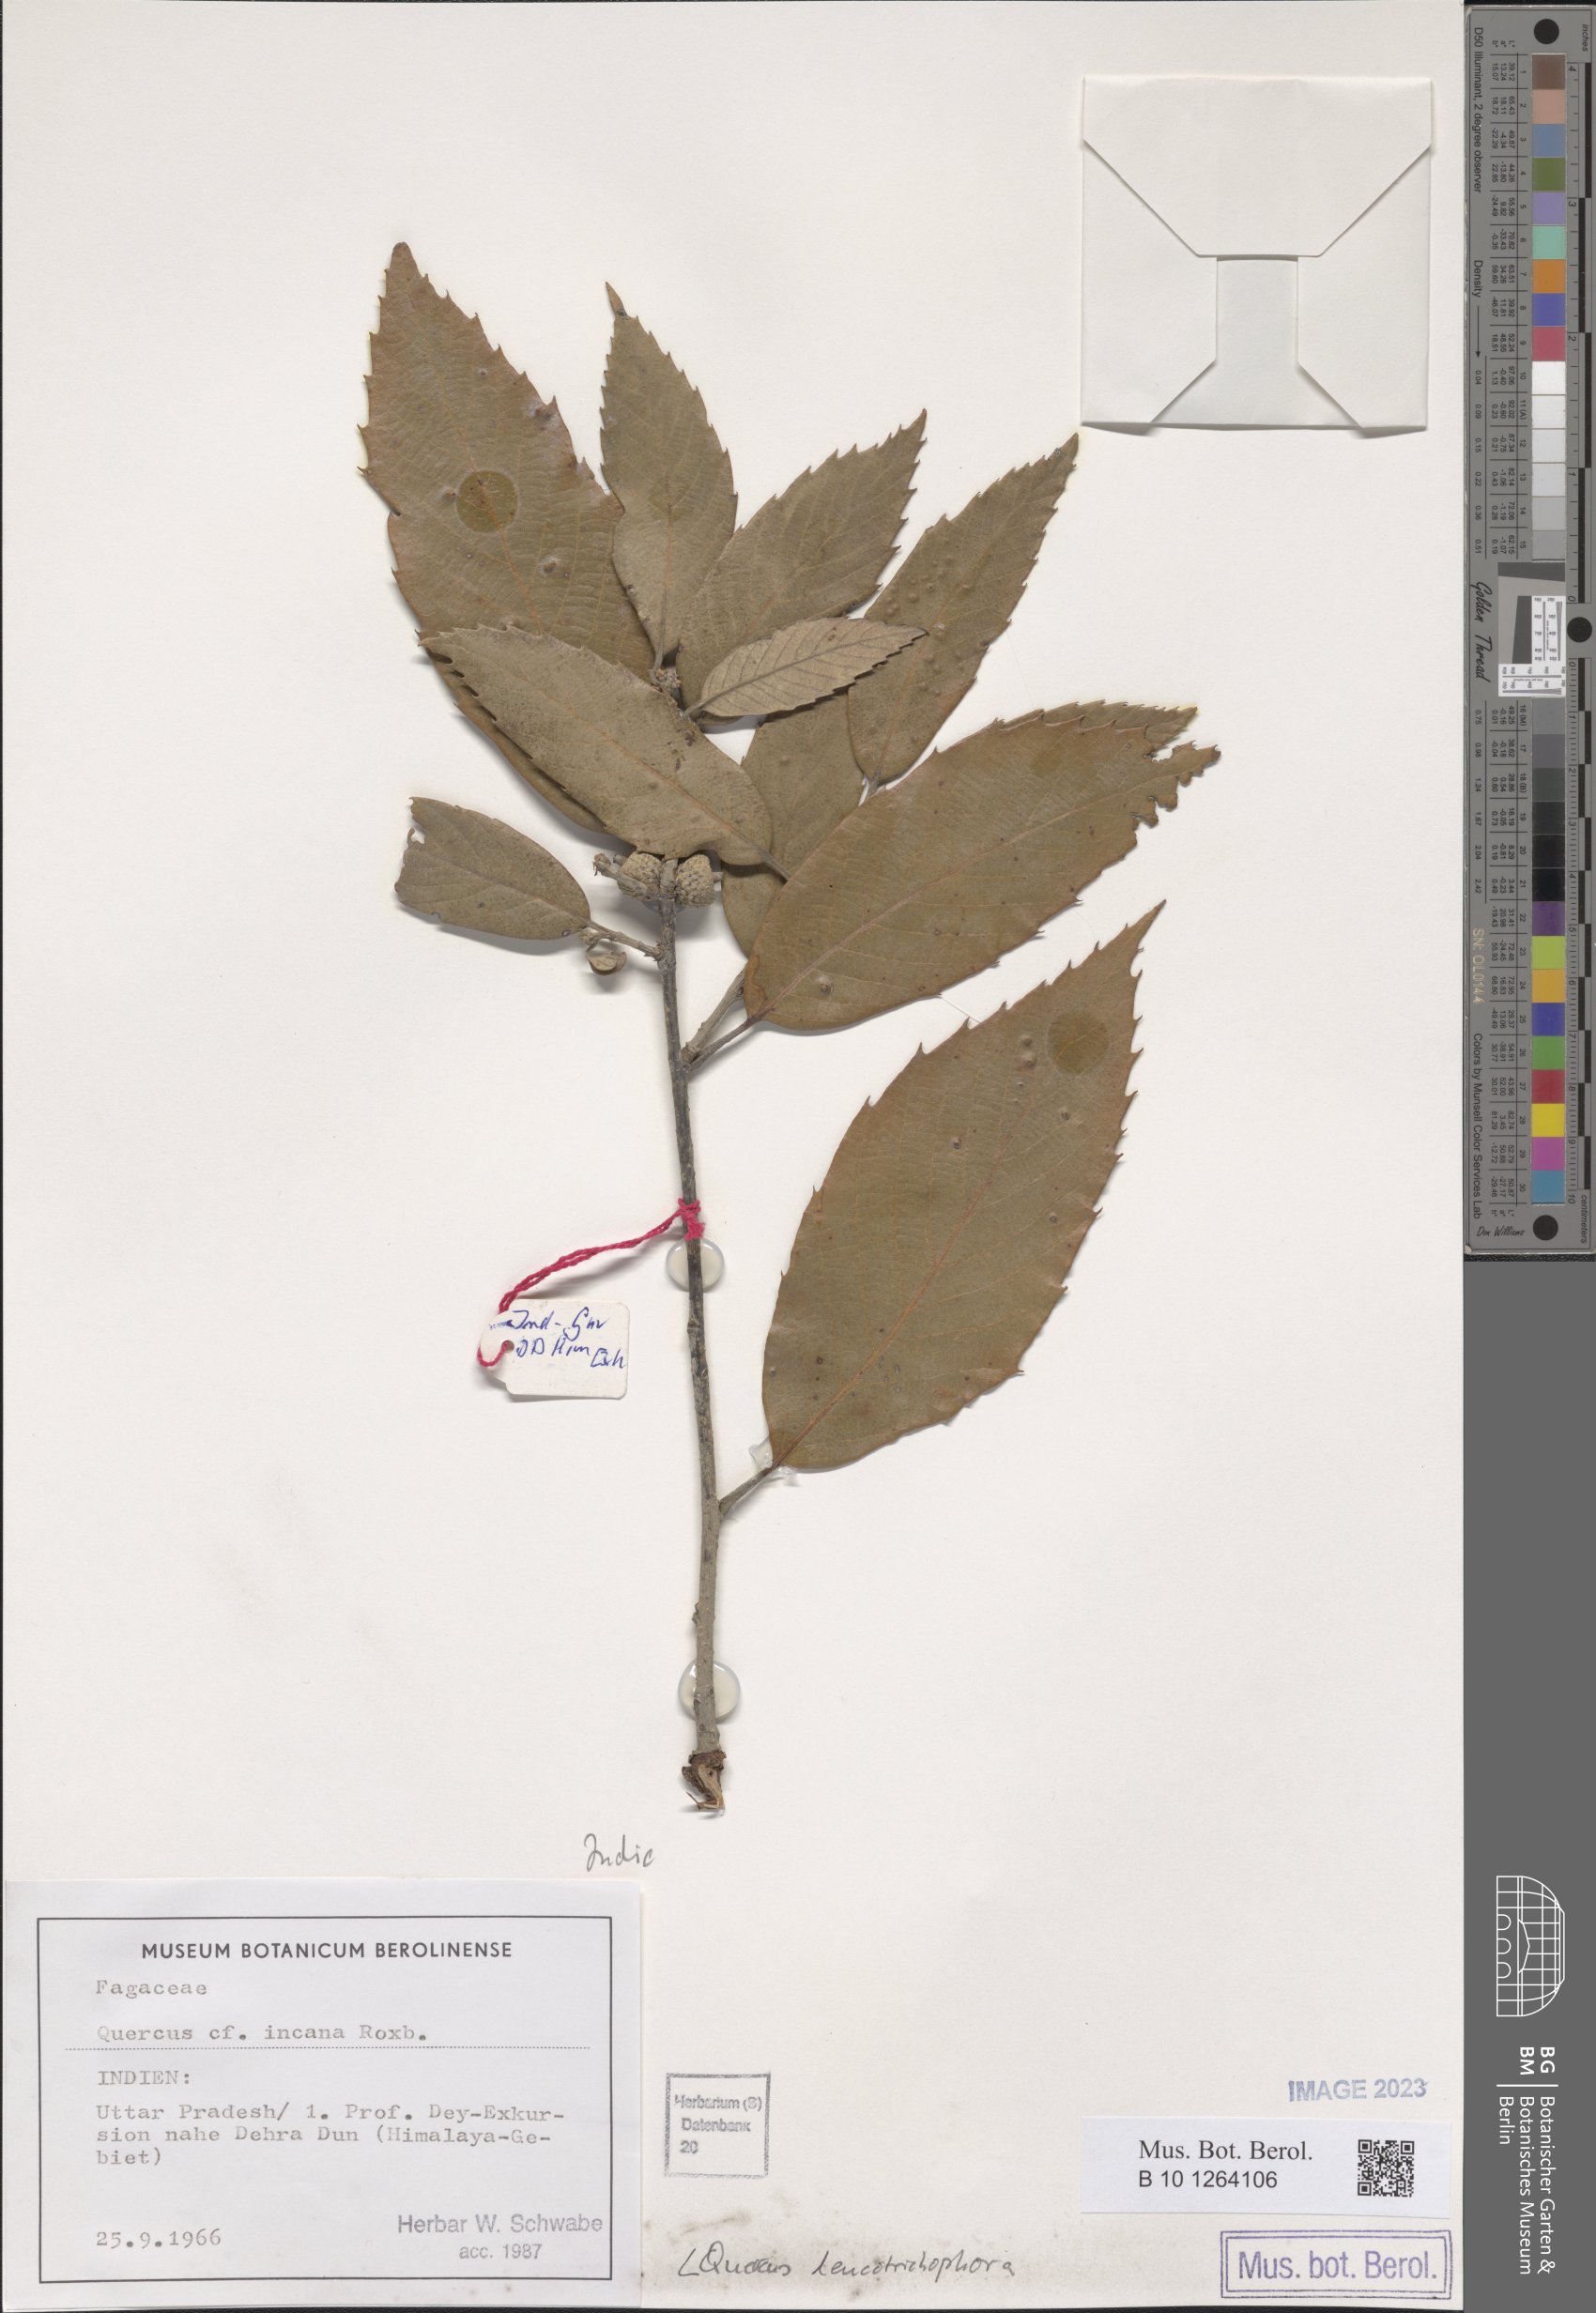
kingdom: Plantae
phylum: Tracheophyta
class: Magnoliopsida
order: Fagales
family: Fagaceae
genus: Quercus
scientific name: Quercus leucotrichophora
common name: Banj oak
